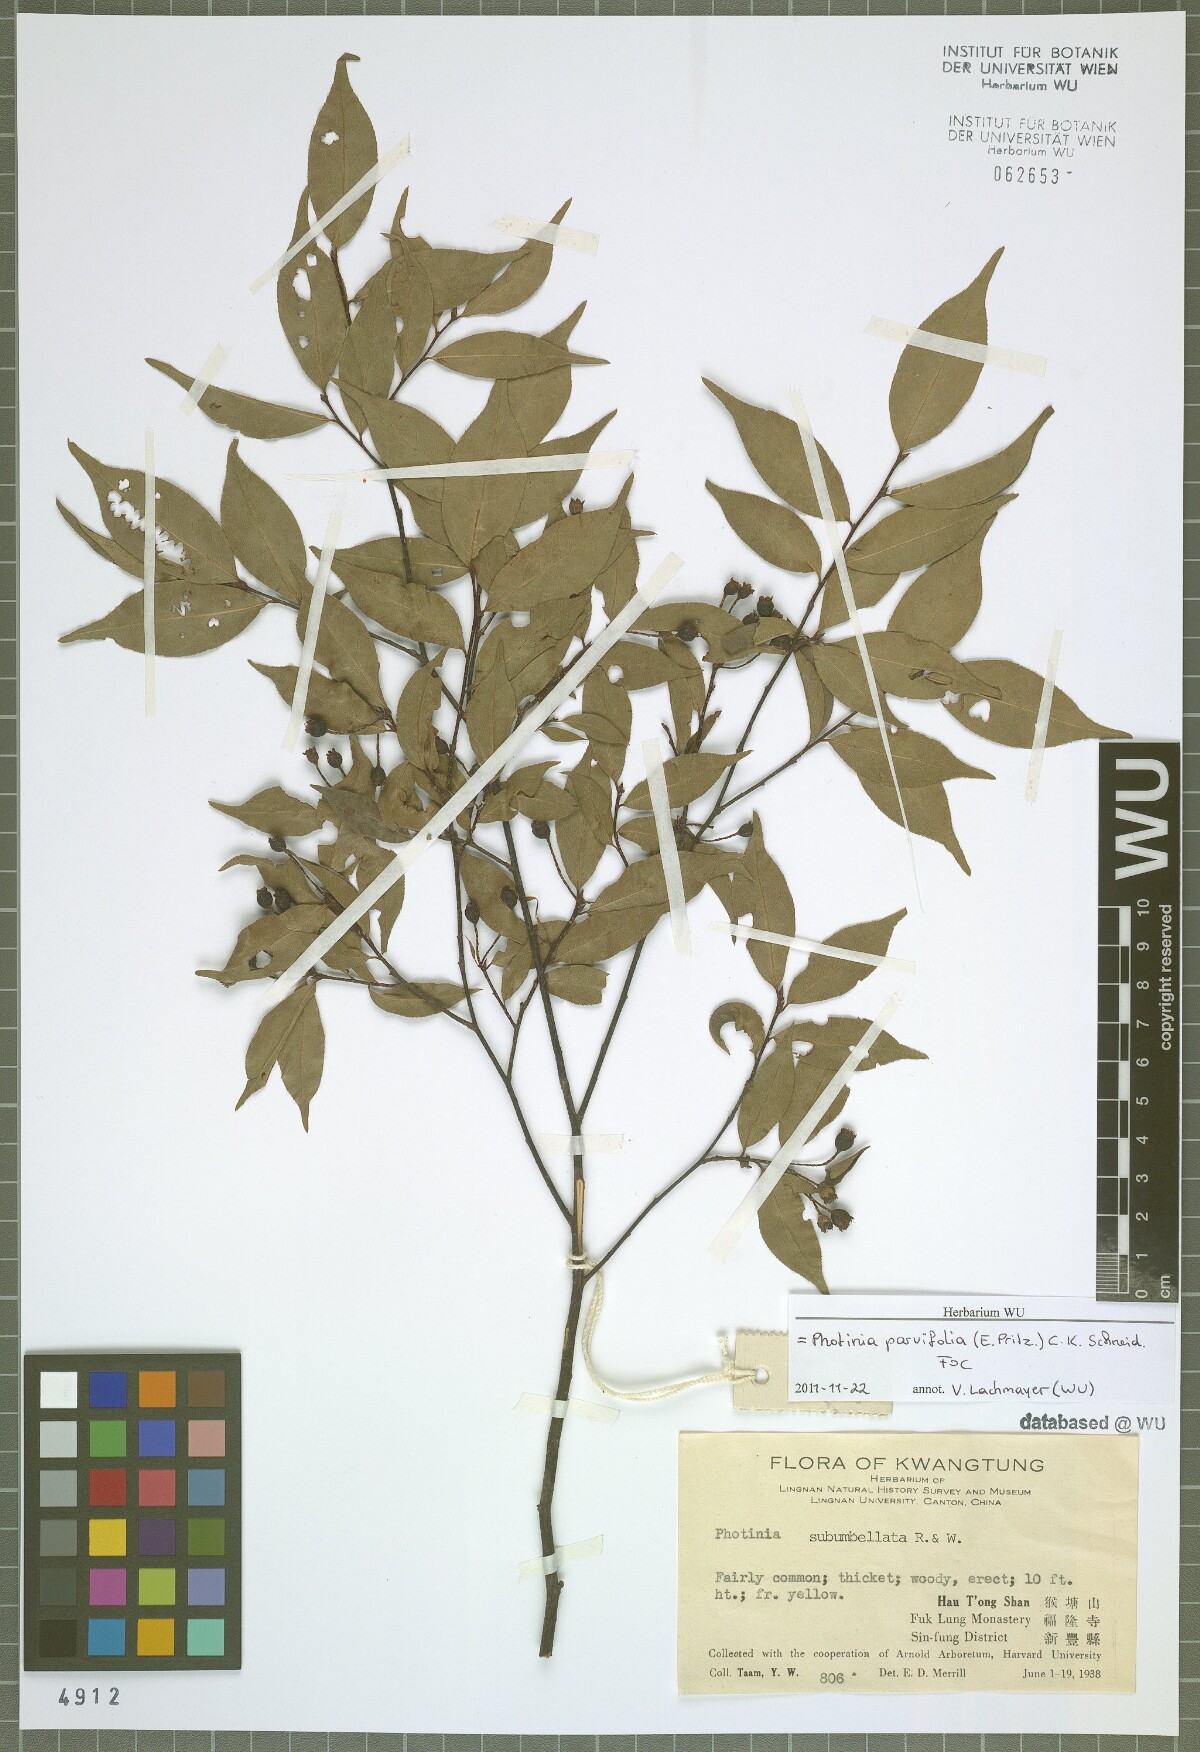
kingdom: Plantae
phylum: Tracheophyta
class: Magnoliopsida
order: Rosales
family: Rosaceae
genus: Pourthiaea
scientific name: Pourthiaea parviflora
